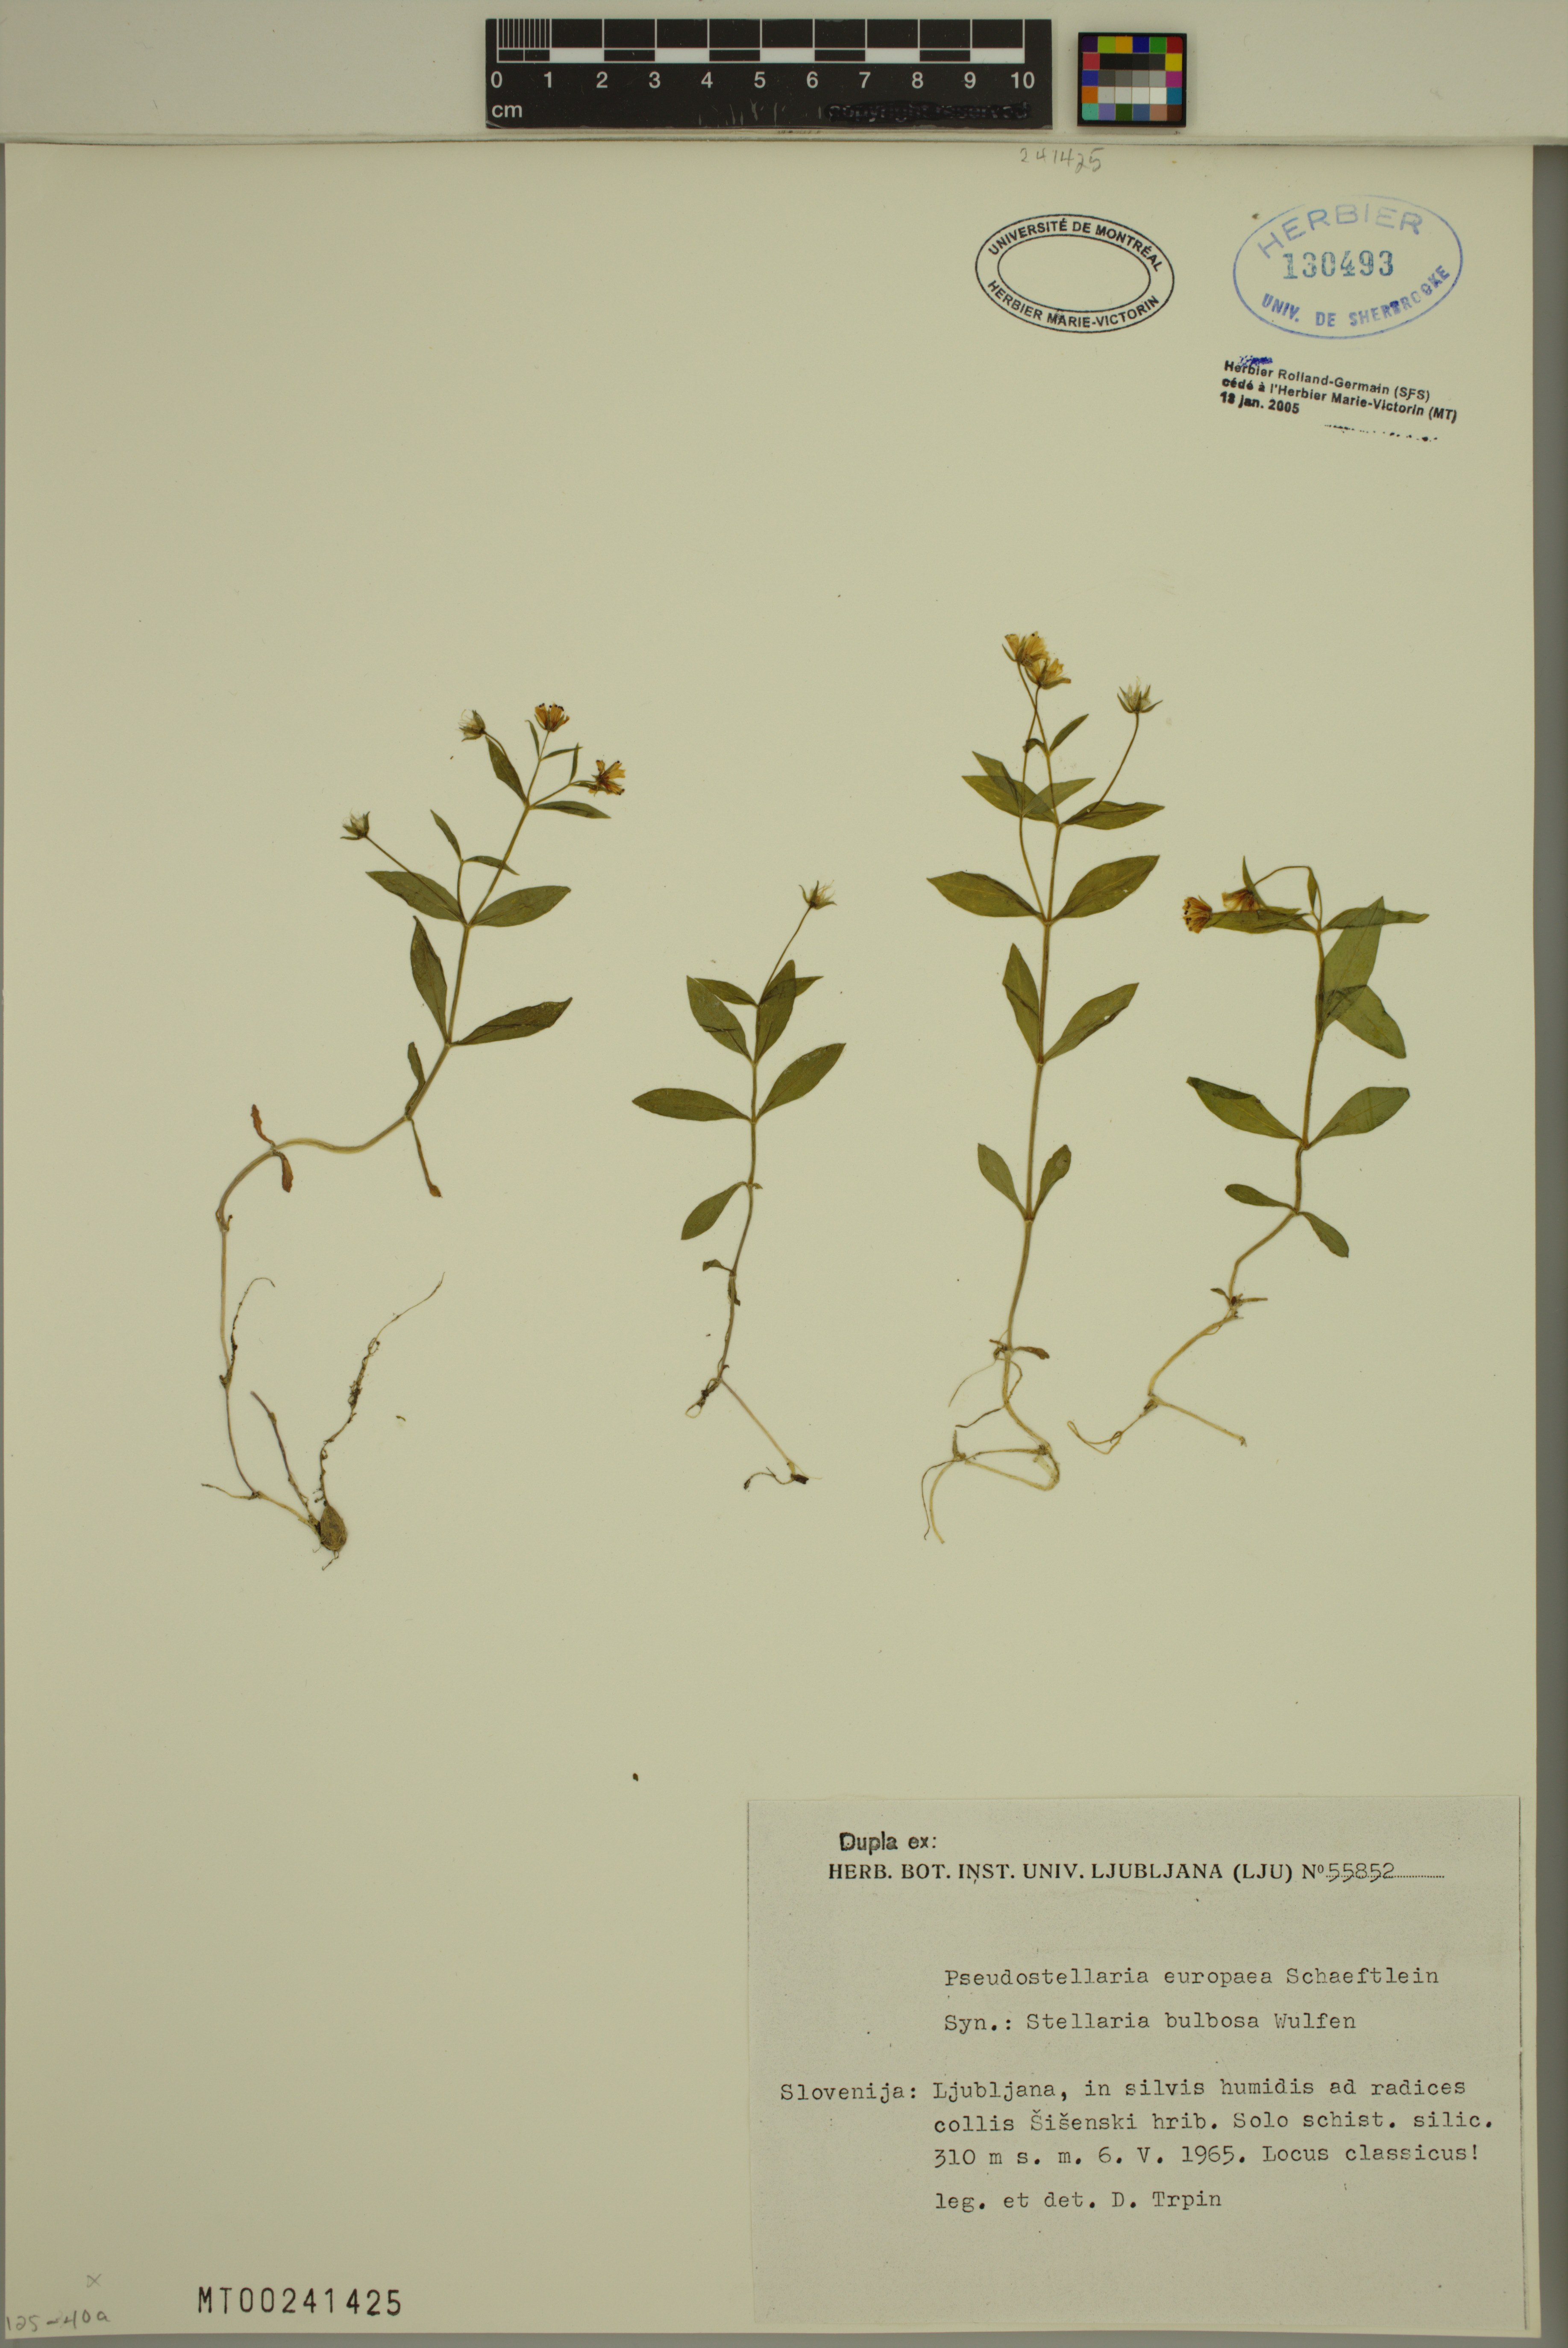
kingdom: Plantae
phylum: Tracheophyta
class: Magnoliopsida
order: Caryophyllales
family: Caryophyllaceae
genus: Pseudostellaria
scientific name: Pseudostellaria europaea
